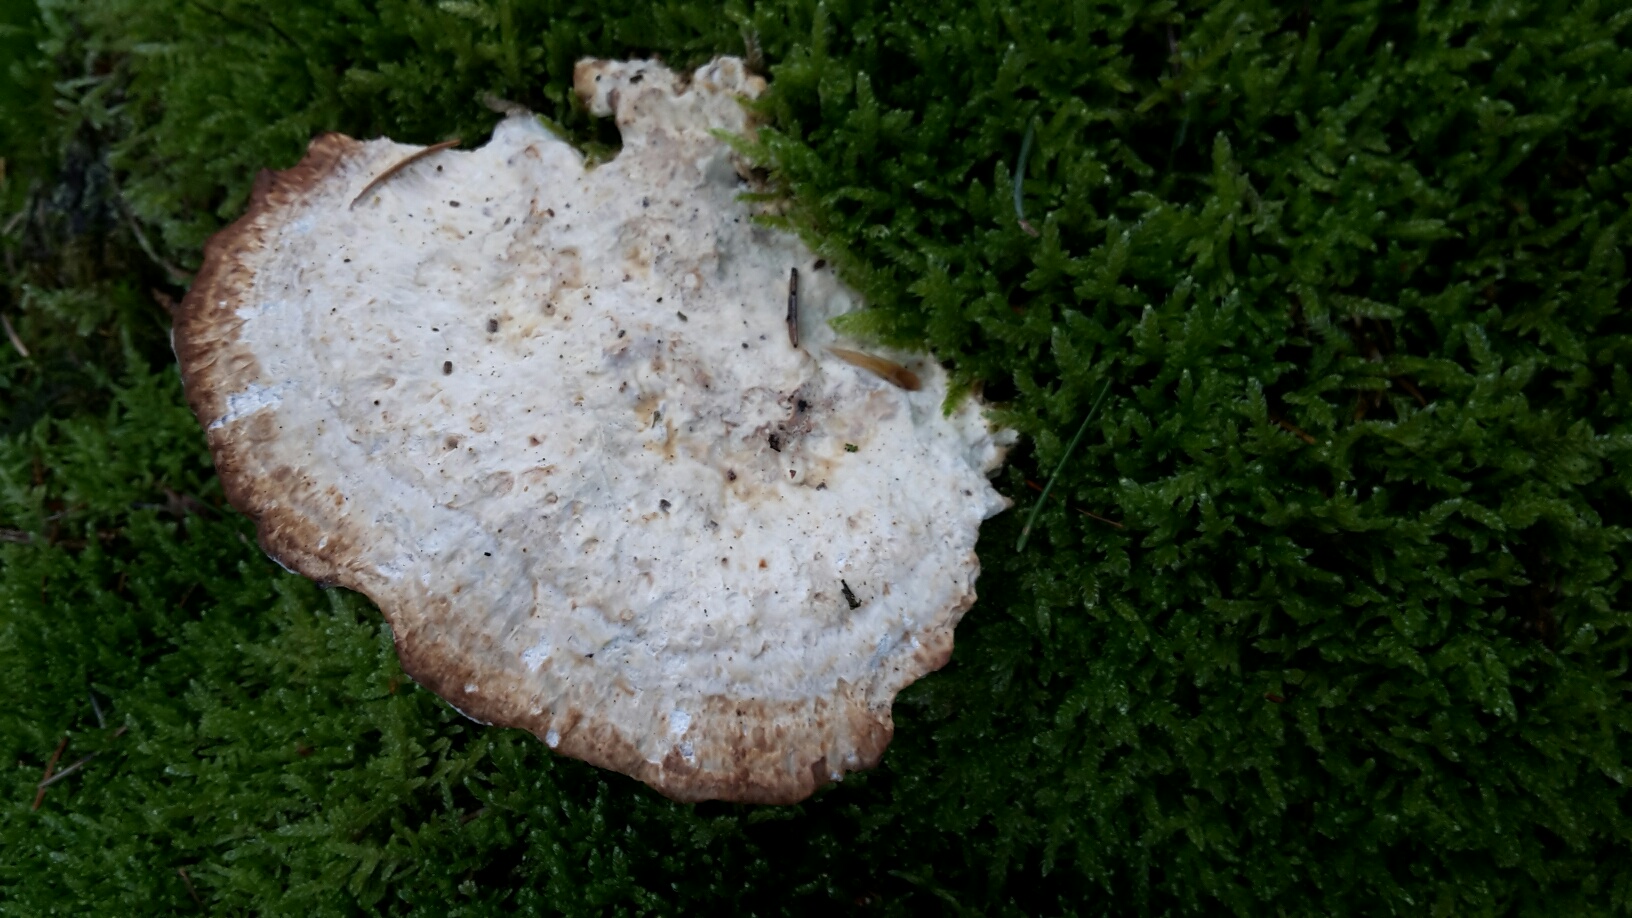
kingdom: Fungi
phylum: Basidiomycota
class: Agaricomycetes
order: Polyporales
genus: Calcipostia
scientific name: Calcipostia guttulata
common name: dråbe-kødporesvamp
